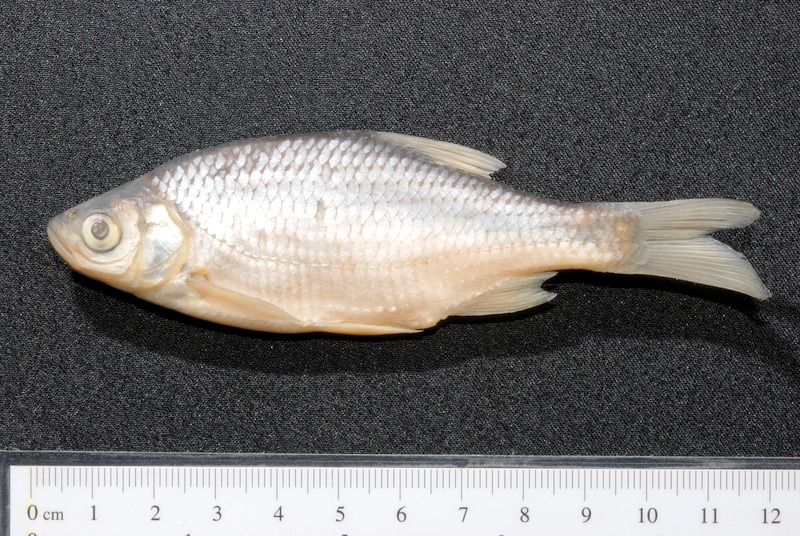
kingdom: Animalia
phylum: Chordata
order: Cypriniformes
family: Cyprinidae
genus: Scardinius
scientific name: Scardinius erythrophthalmus
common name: Rudd
